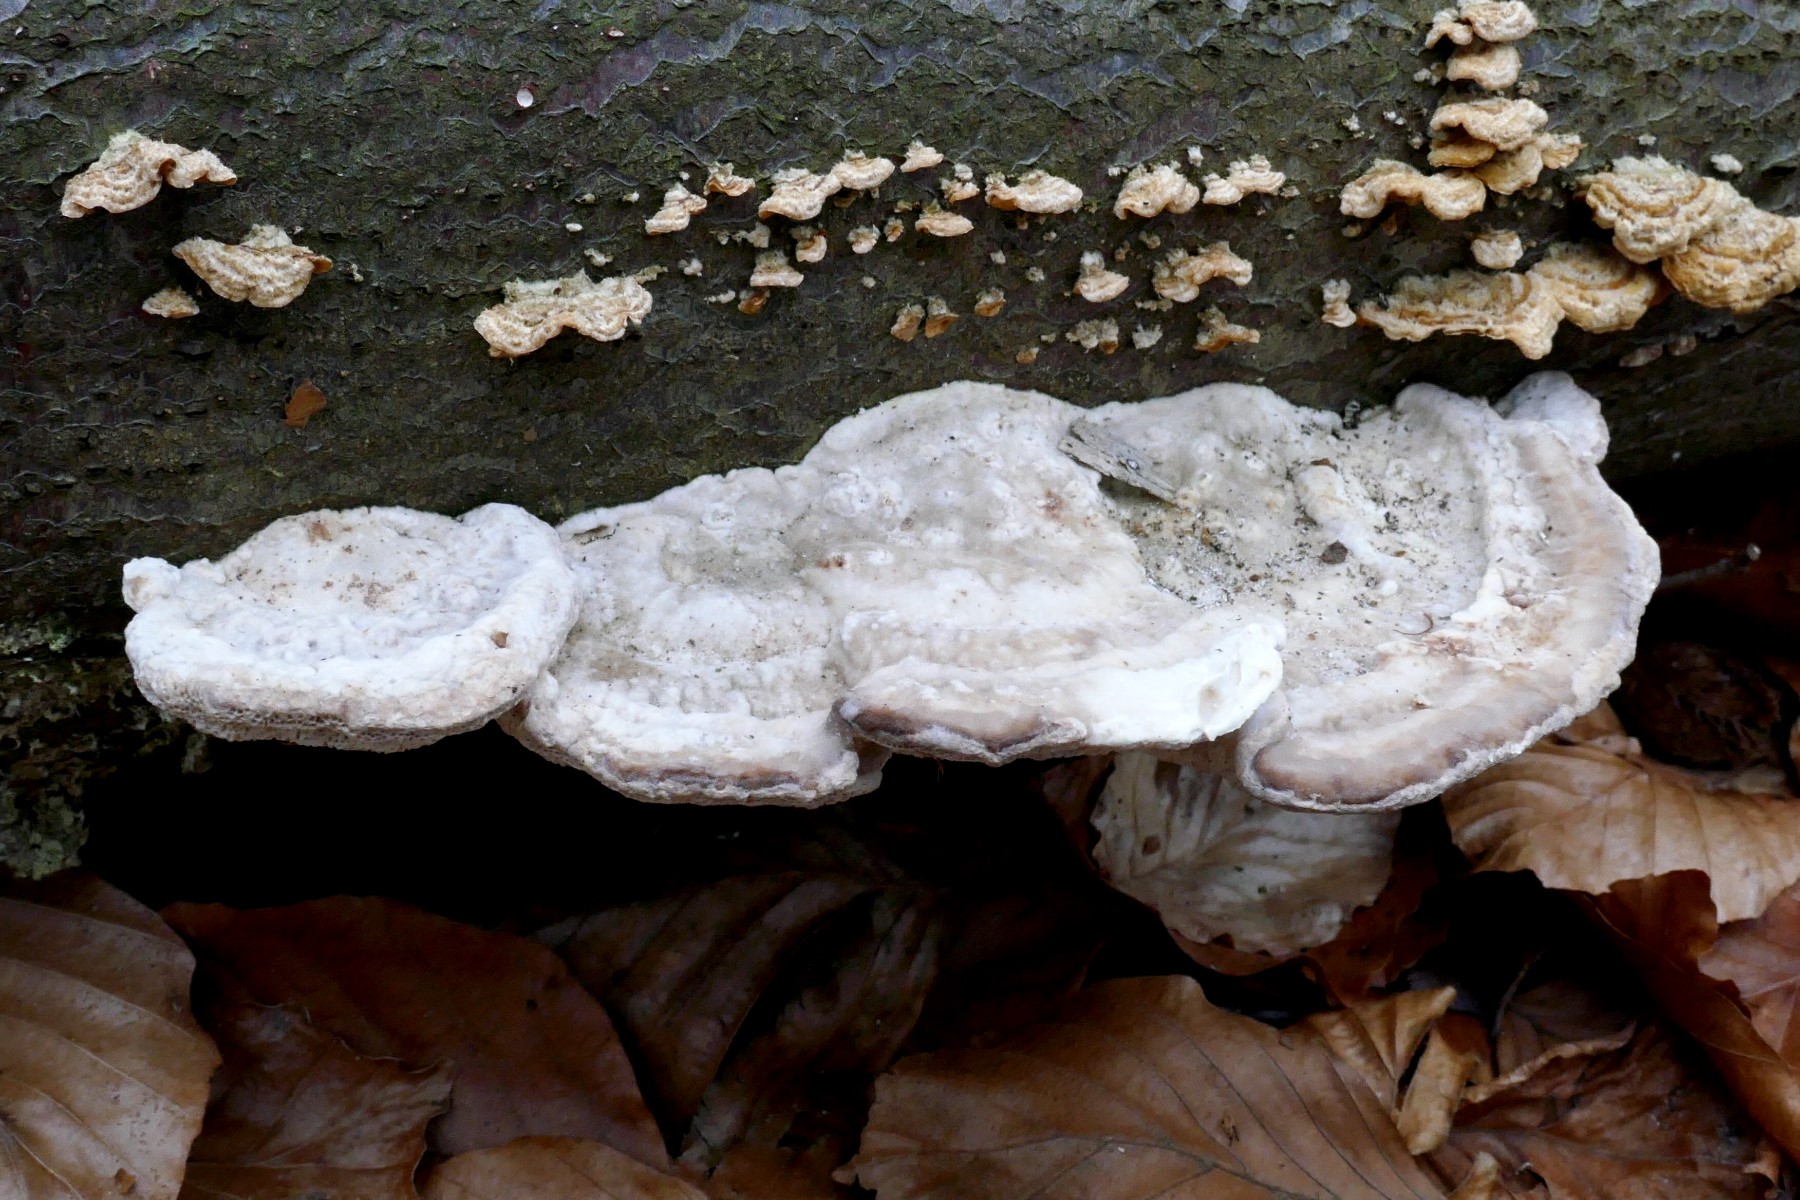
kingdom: Fungi
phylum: Basidiomycota
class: Agaricomycetes
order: Polyporales
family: Polyporaceae
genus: Trametes
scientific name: Trametes hirsuta
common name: håret læderporesvamp
